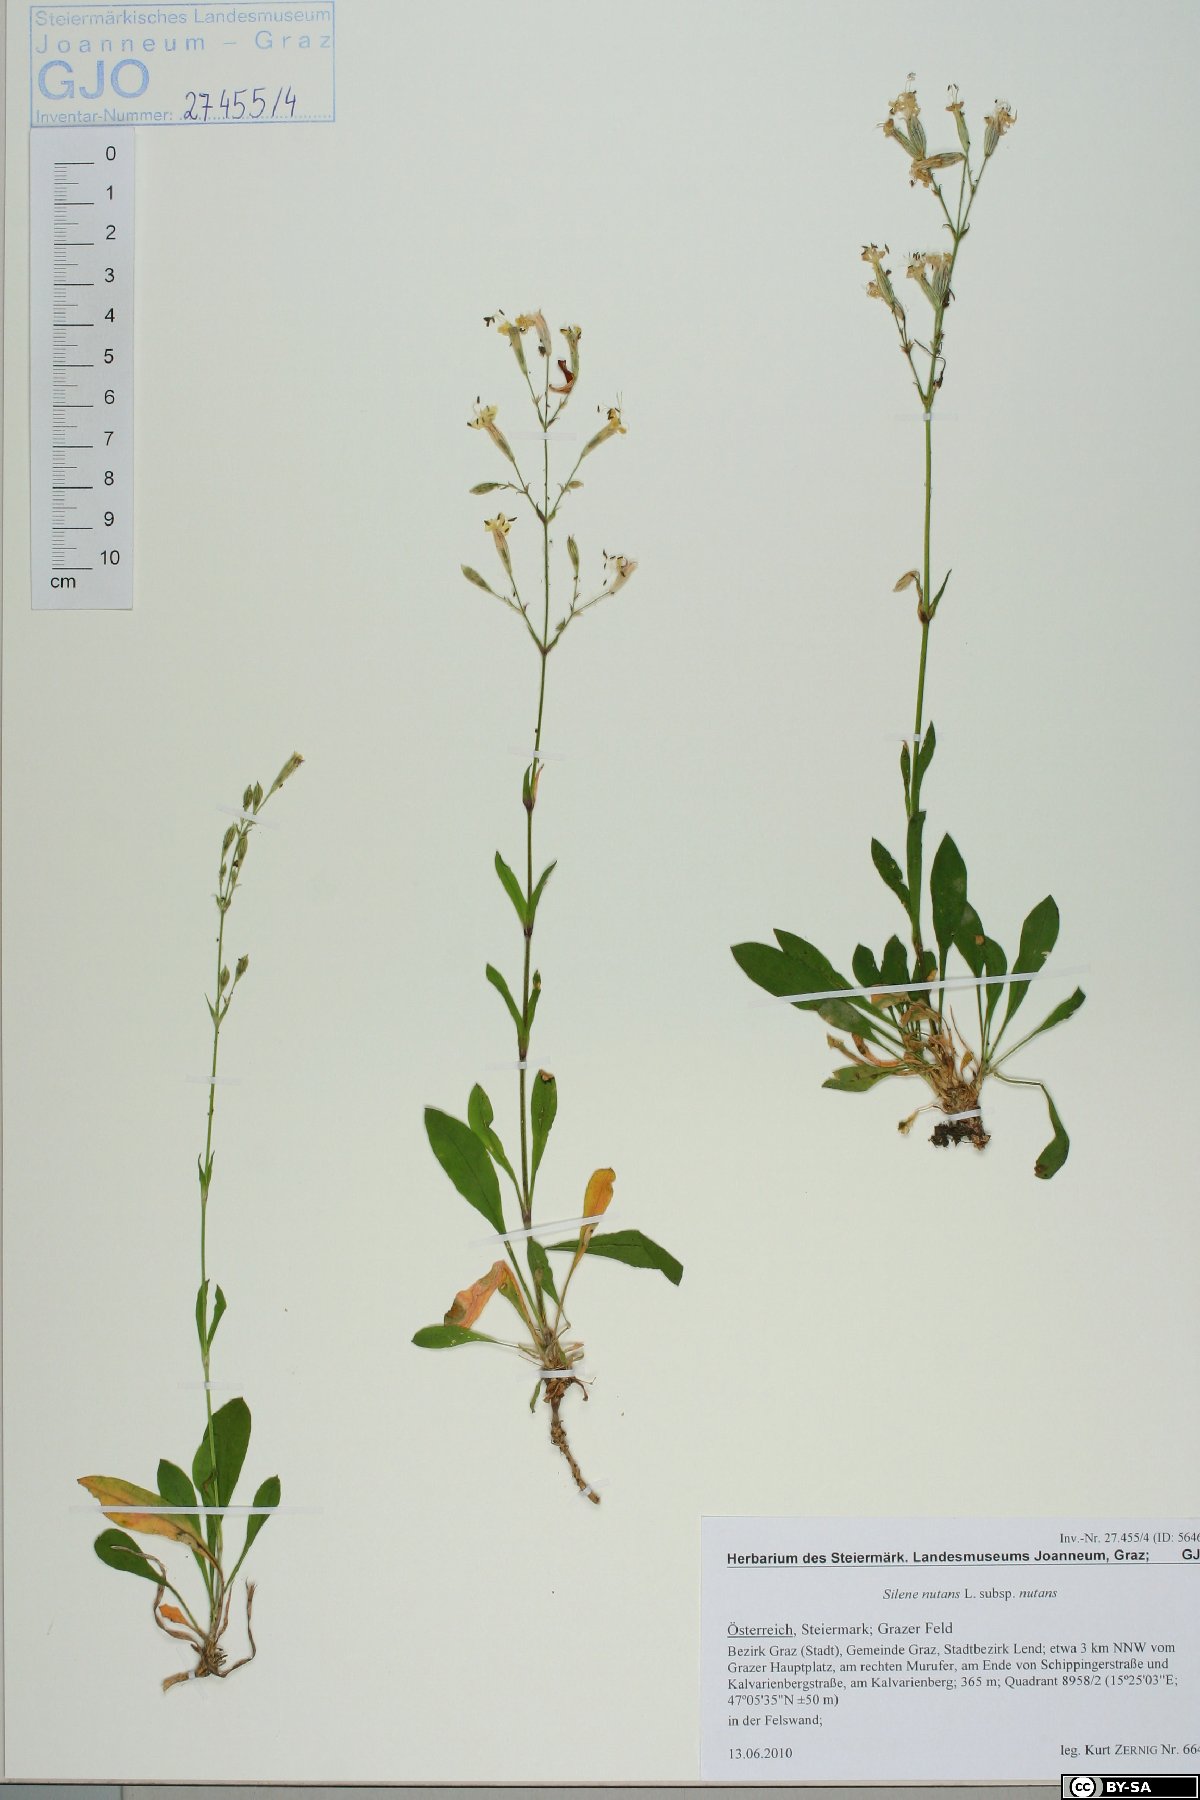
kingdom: Plantae
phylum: Tracheophyta
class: Magnoliopsida
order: Caryophyllales
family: Caryophyllaceae
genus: Silene
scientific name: Silene nutans
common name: Nottingham catchfly
